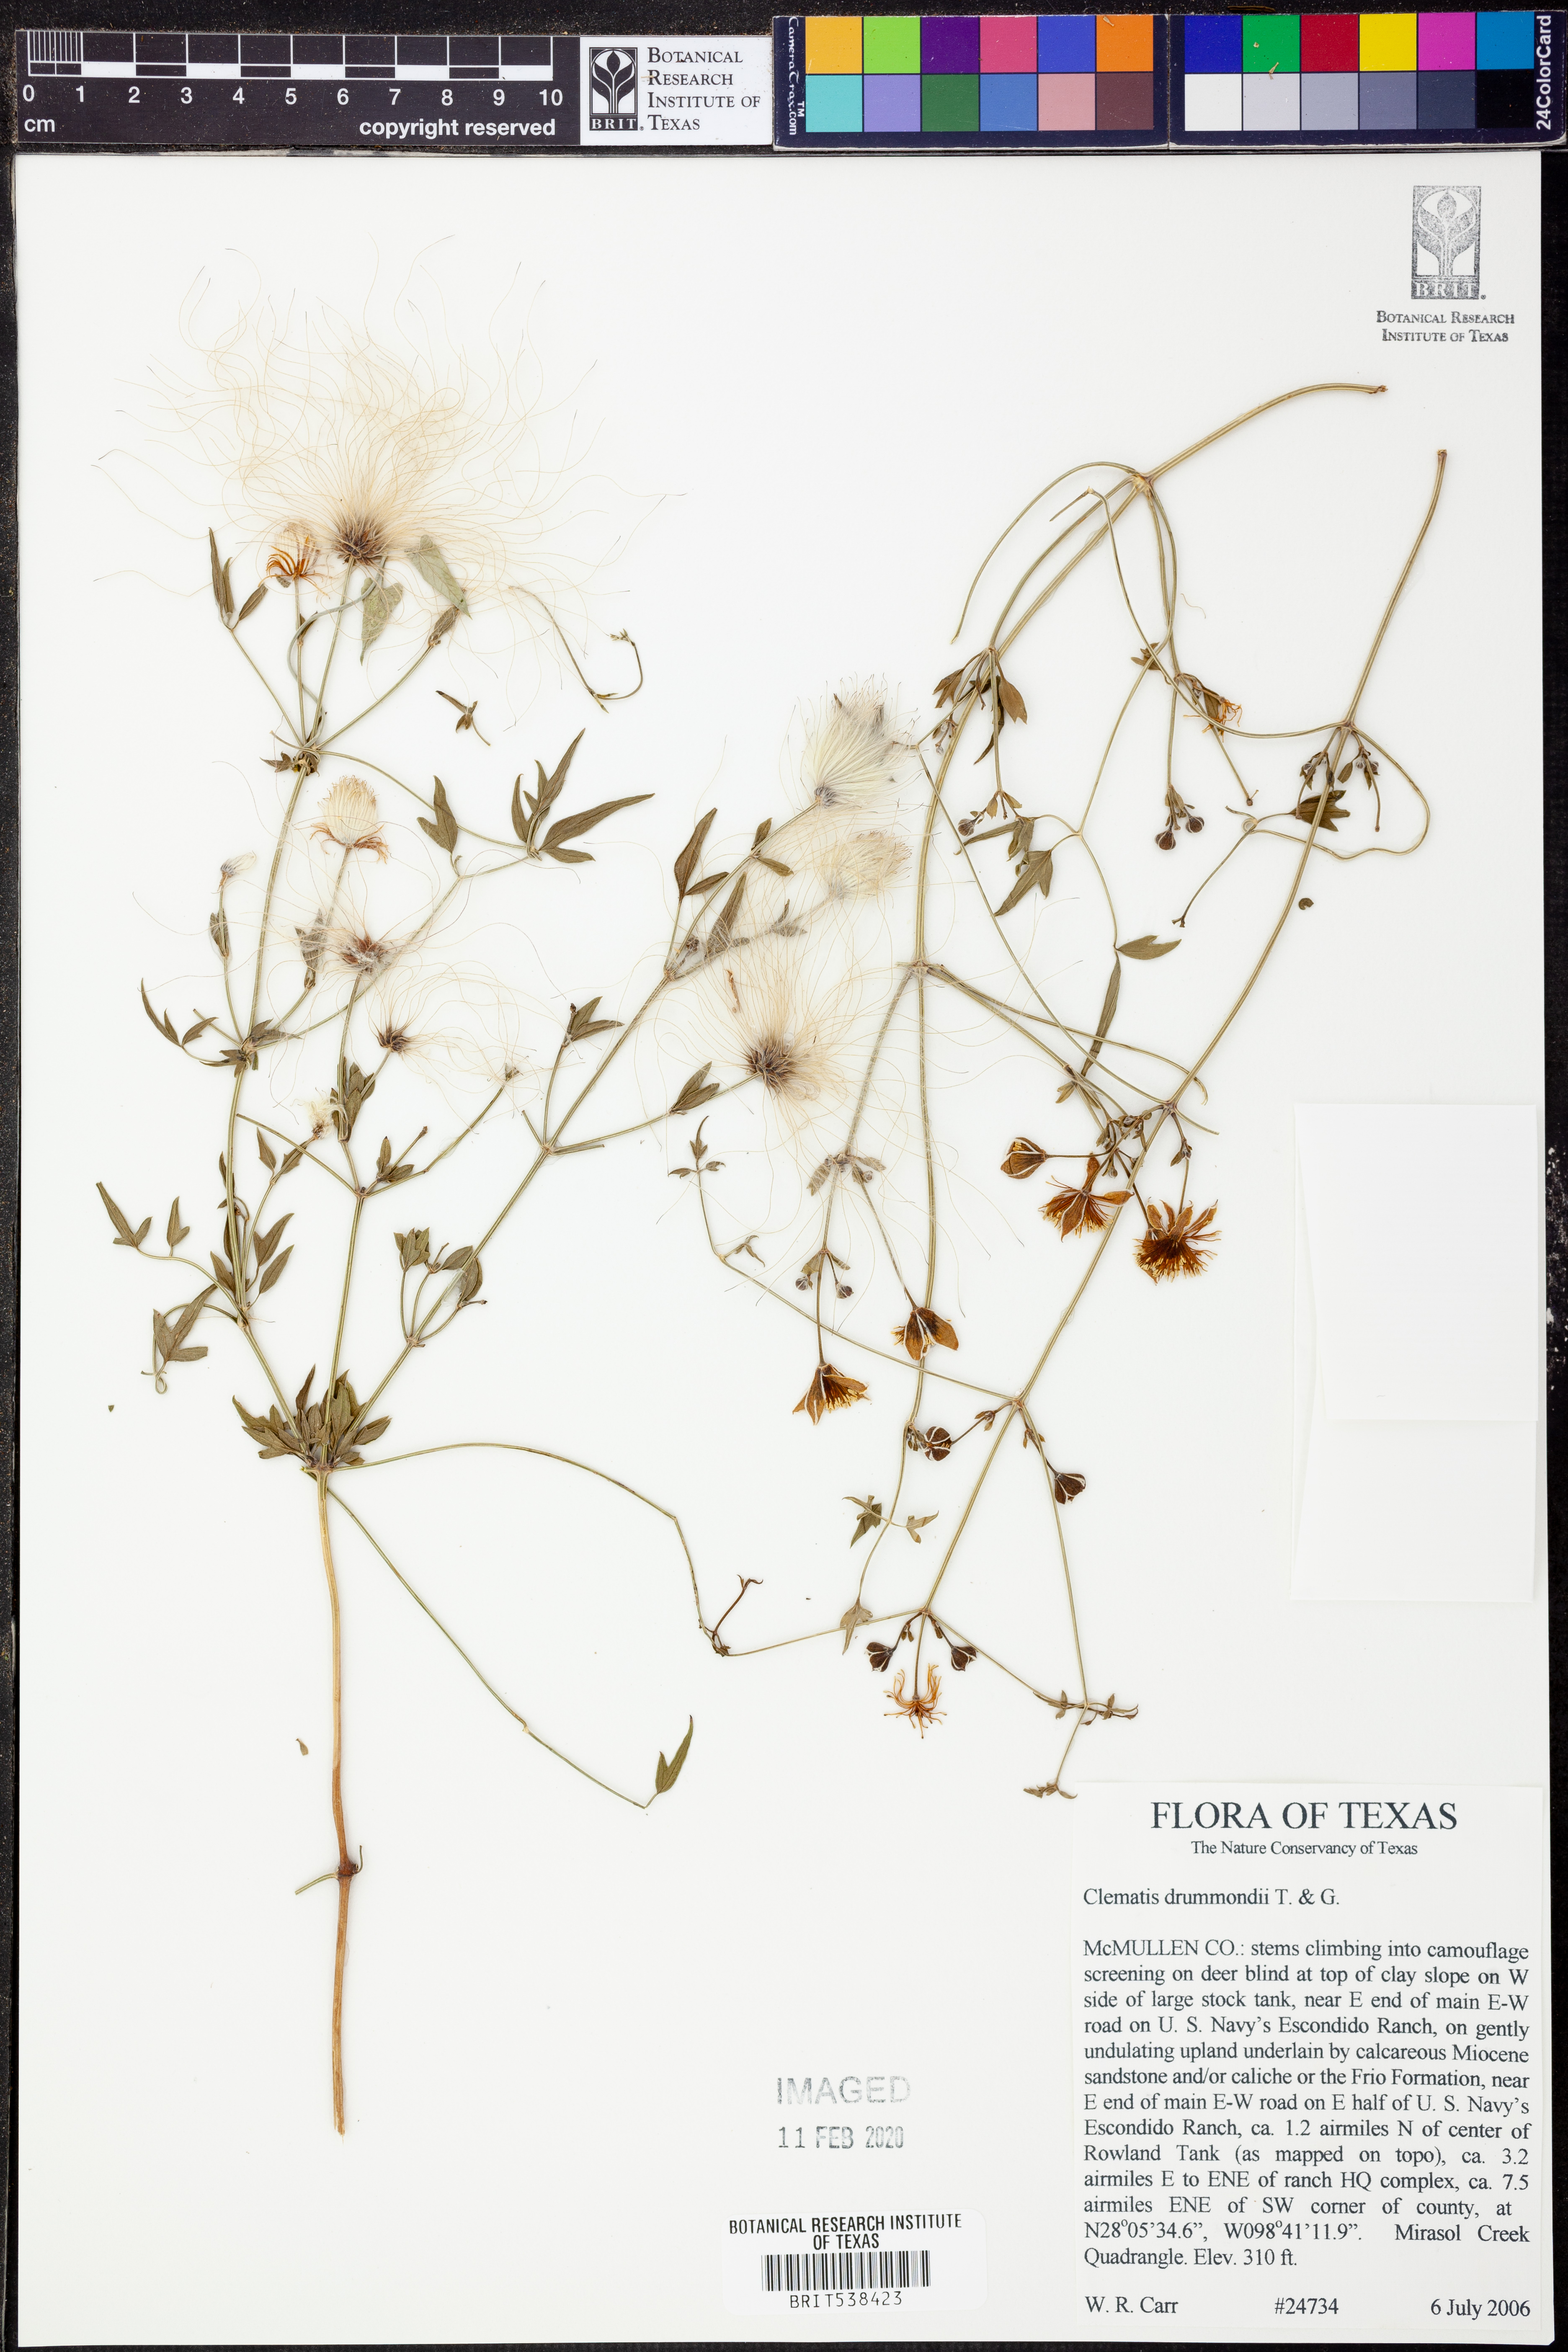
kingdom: Plantae
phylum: Tracheophyta
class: Magnoliopsida
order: Ranunculales
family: Ranunculaceae
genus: Clematis
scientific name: Clematis drummondii
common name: Texas virgin's bower
